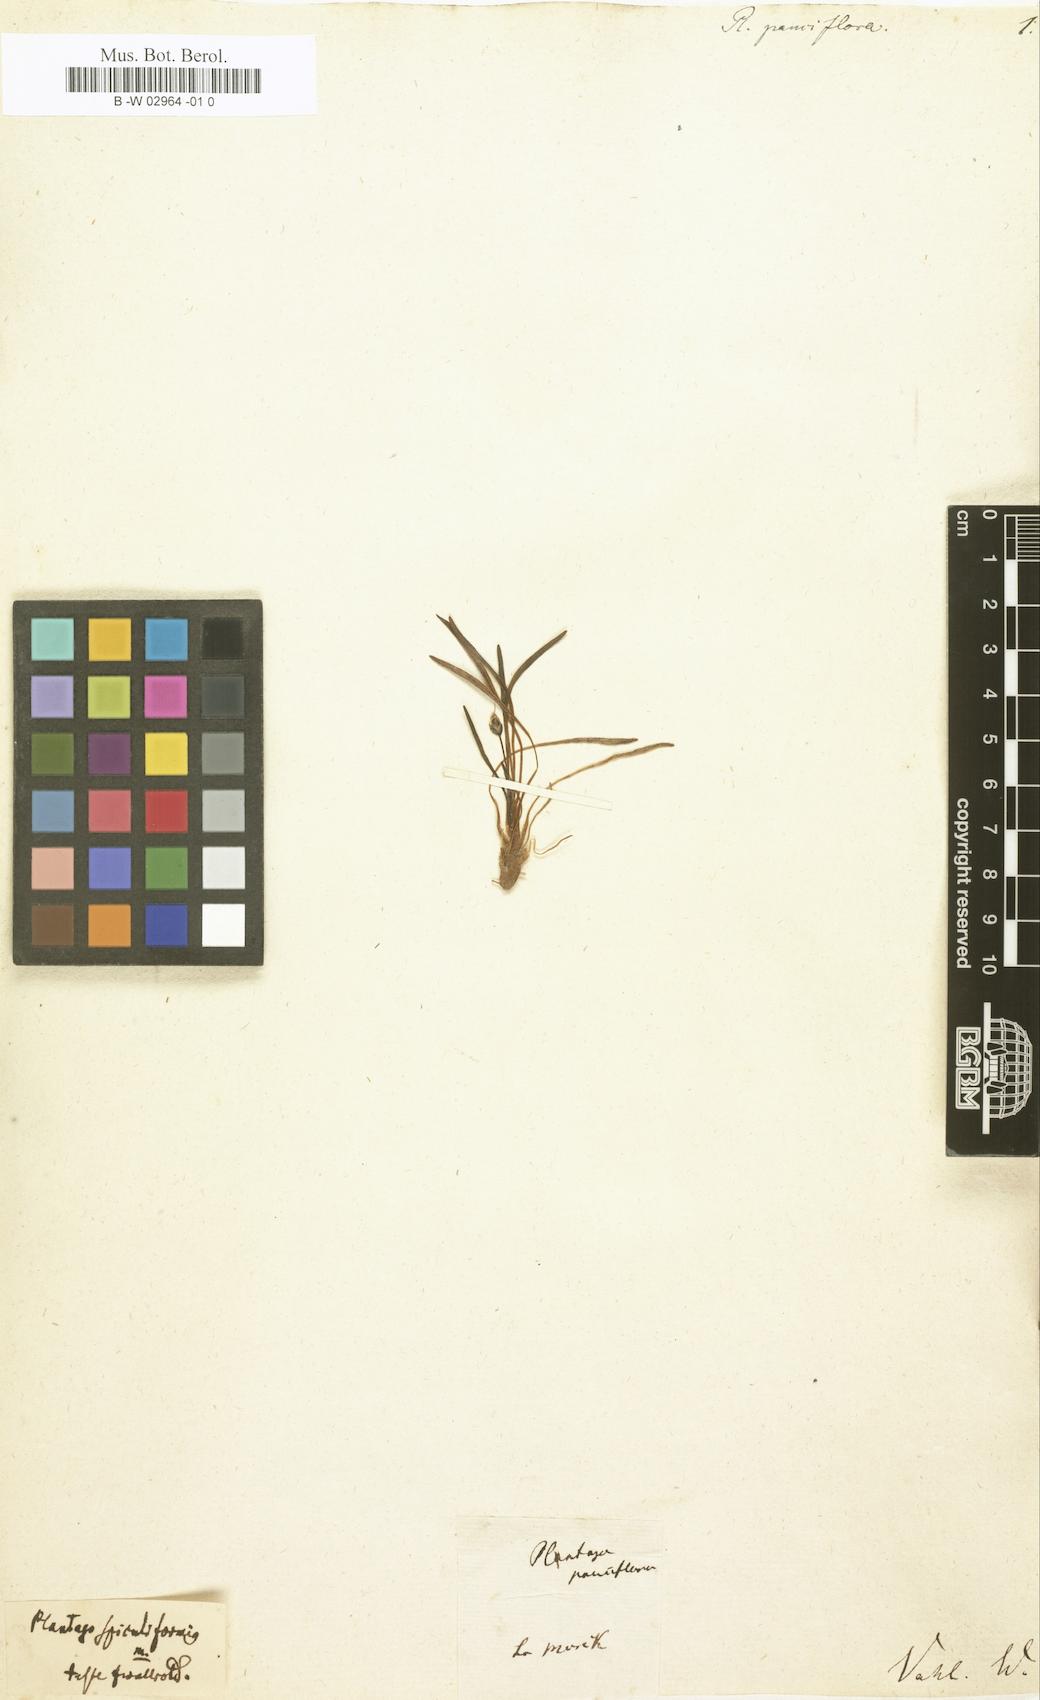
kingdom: Plantae
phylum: Tracheophyta
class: Magnoliopsida
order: Lamiales
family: Plantaginaceae
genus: Plantago
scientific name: Plantago major
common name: Common plantain
